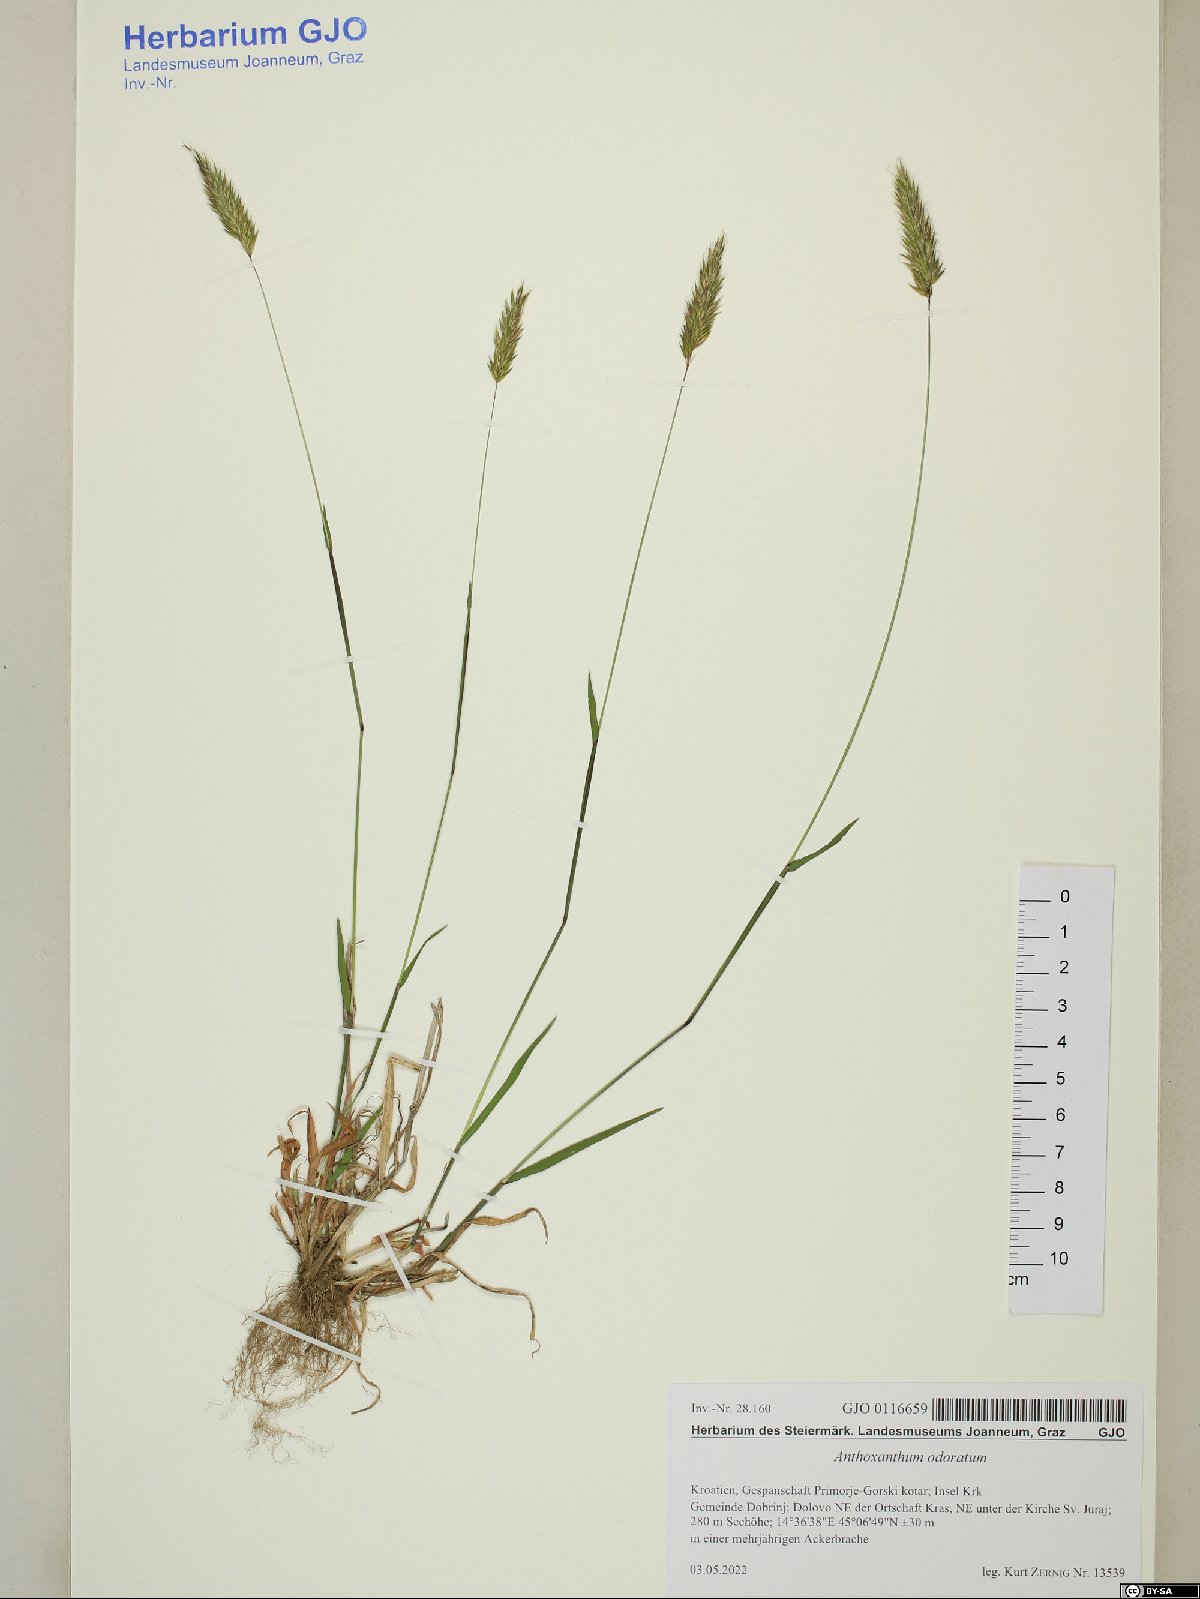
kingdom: Plantae
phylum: Tracheophyta
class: Liliopsida
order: Poales
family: Poaceae
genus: Anthoxanthum
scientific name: Anthoxanthum odoratum
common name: Sweet vernalgrass
